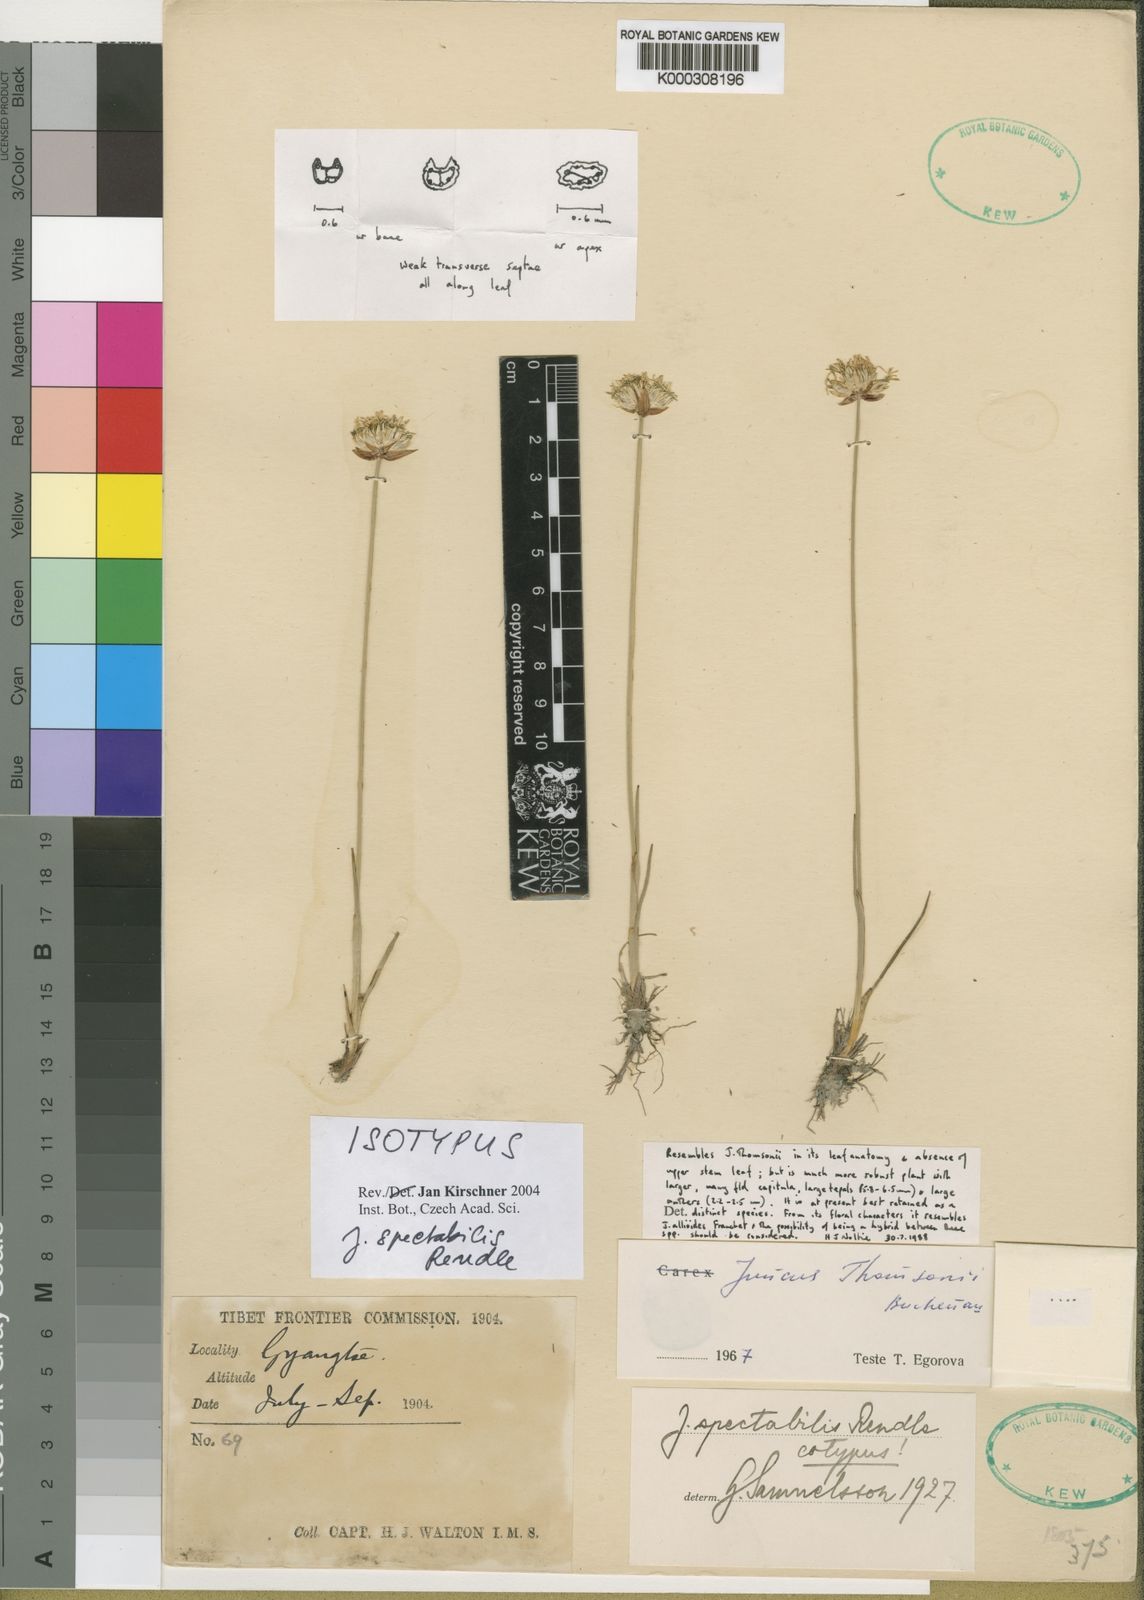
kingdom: Plantae
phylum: Tracheophyta
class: Liliopsida
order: Poales
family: Juncaceae
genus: Juncus
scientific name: Juncus spectabilis
